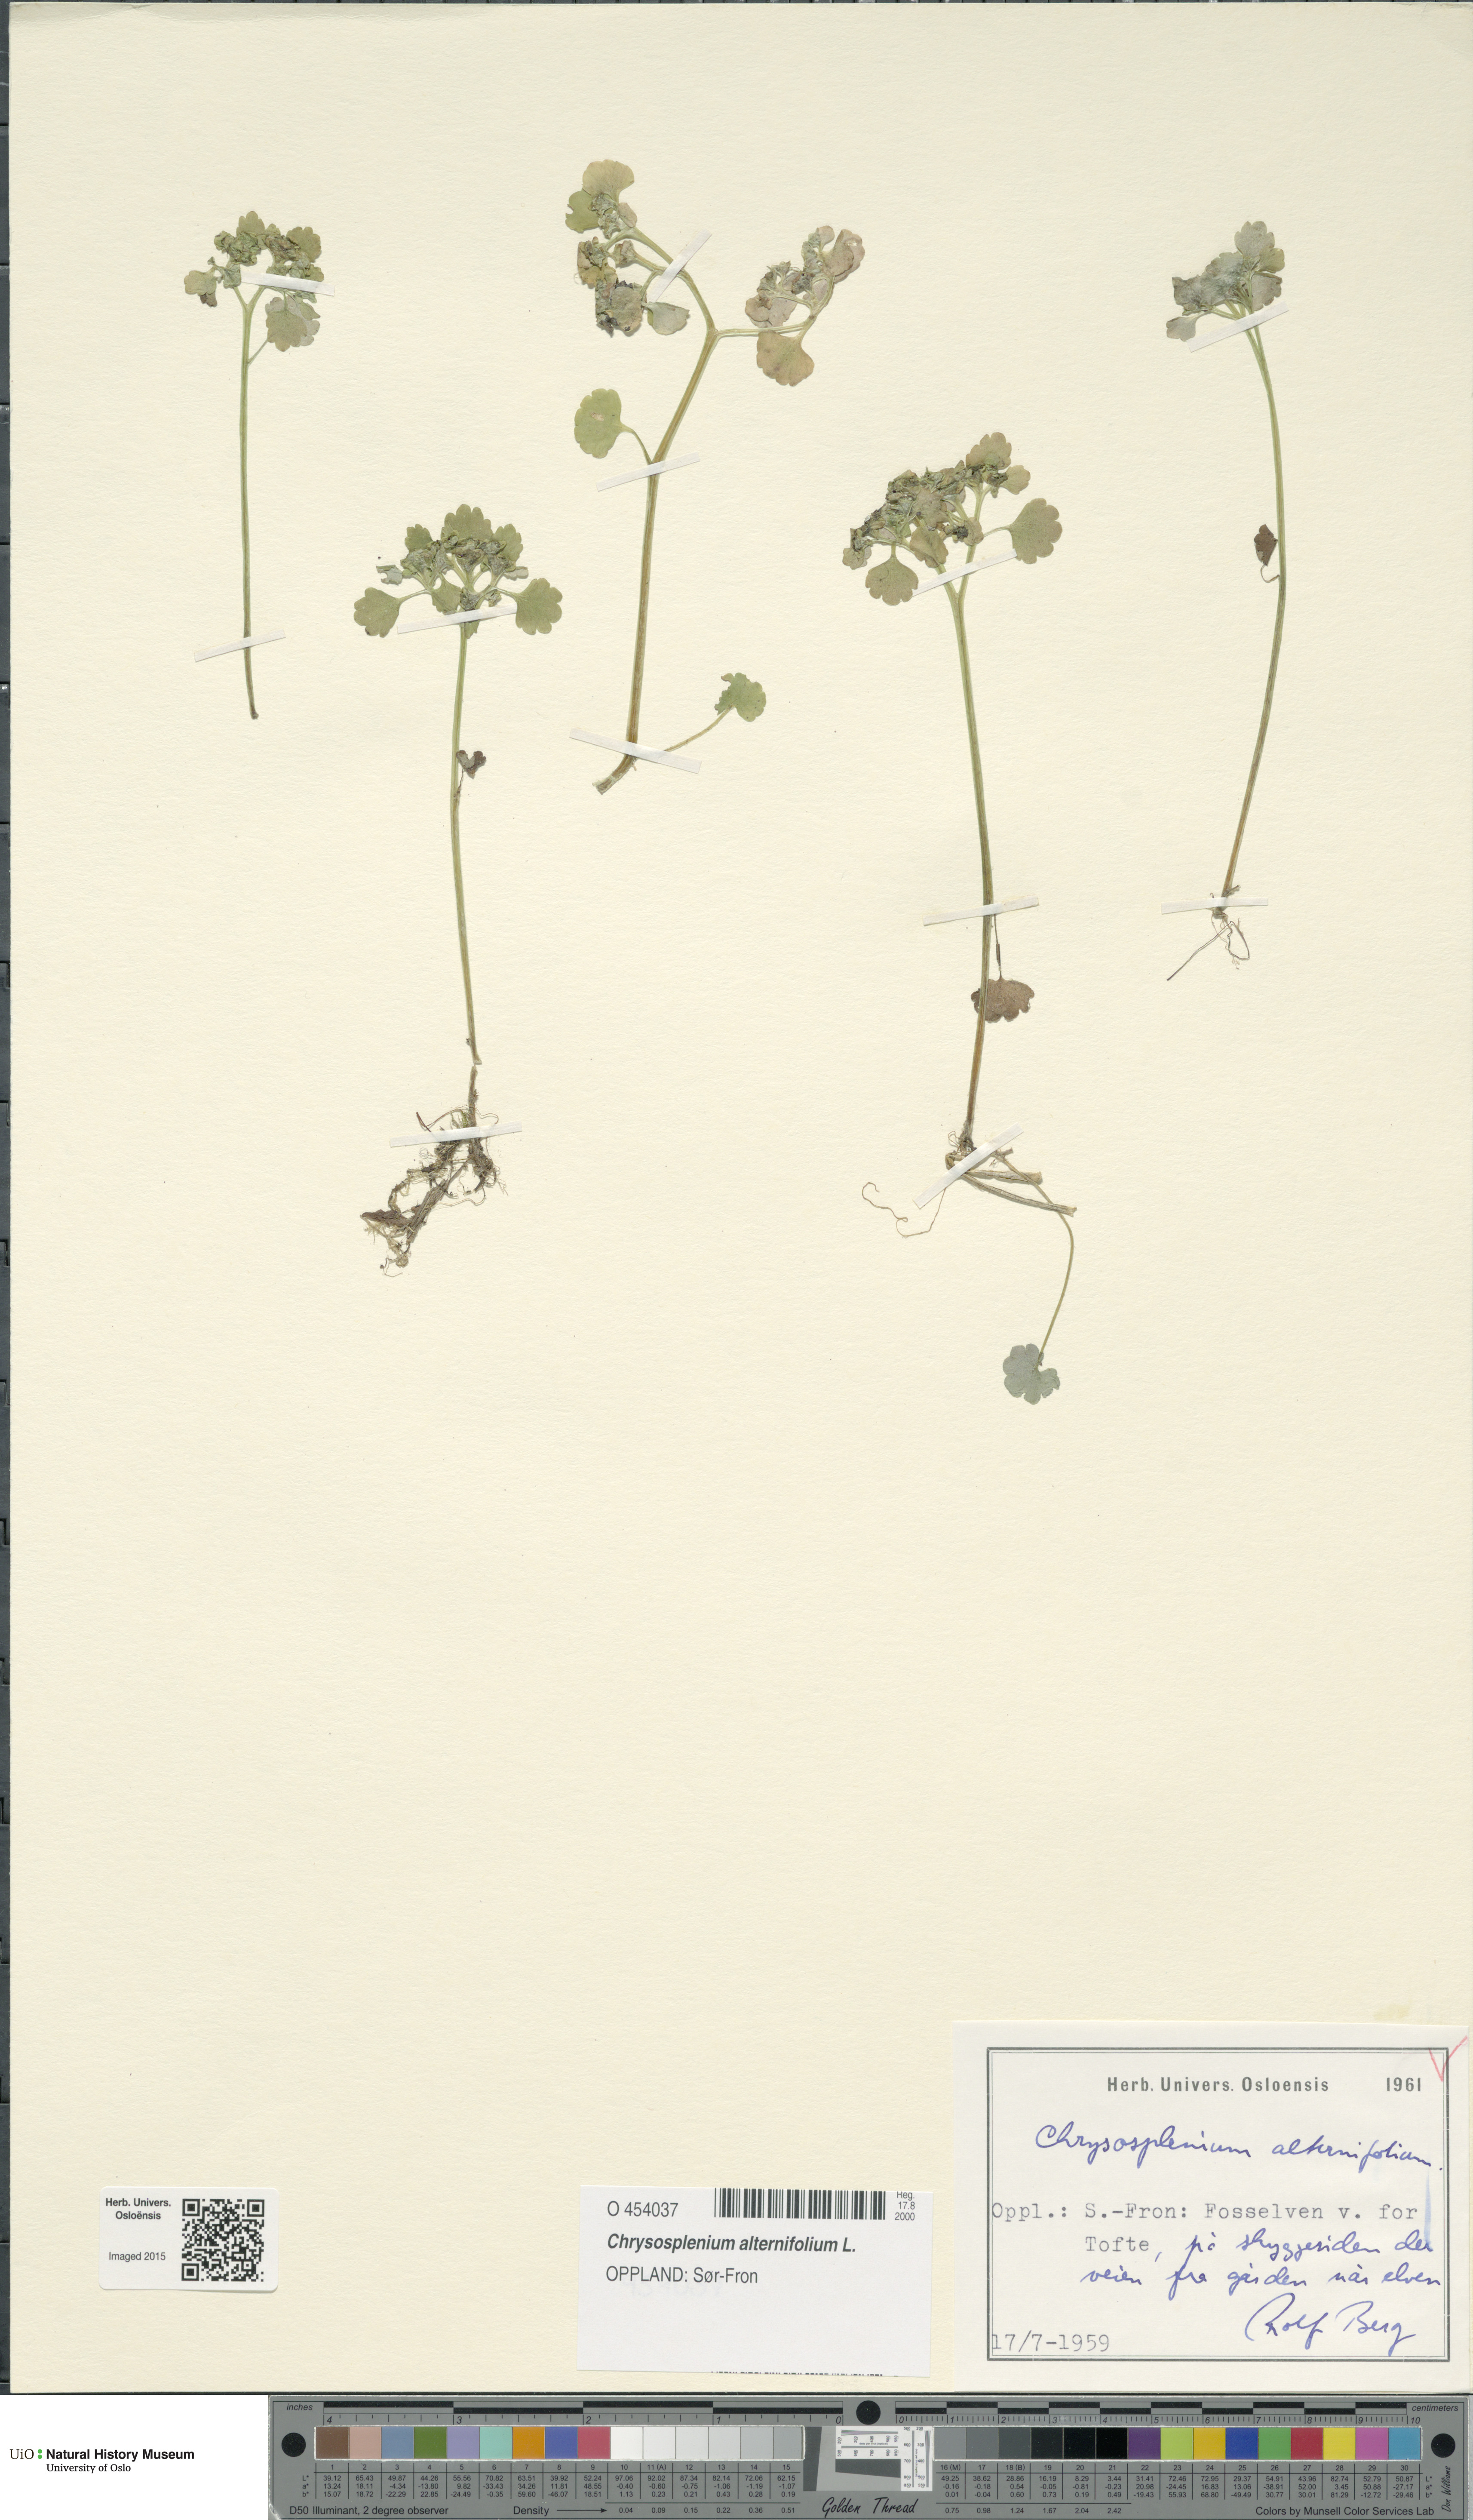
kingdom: Plantae
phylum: Tracheophyta
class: Magnoliopsida
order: Saxifragales
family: Saxifragaceae
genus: Chrysosplenium
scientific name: Chrysosplenium alternifolium
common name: Alternate-leaved golden-saxifrage
